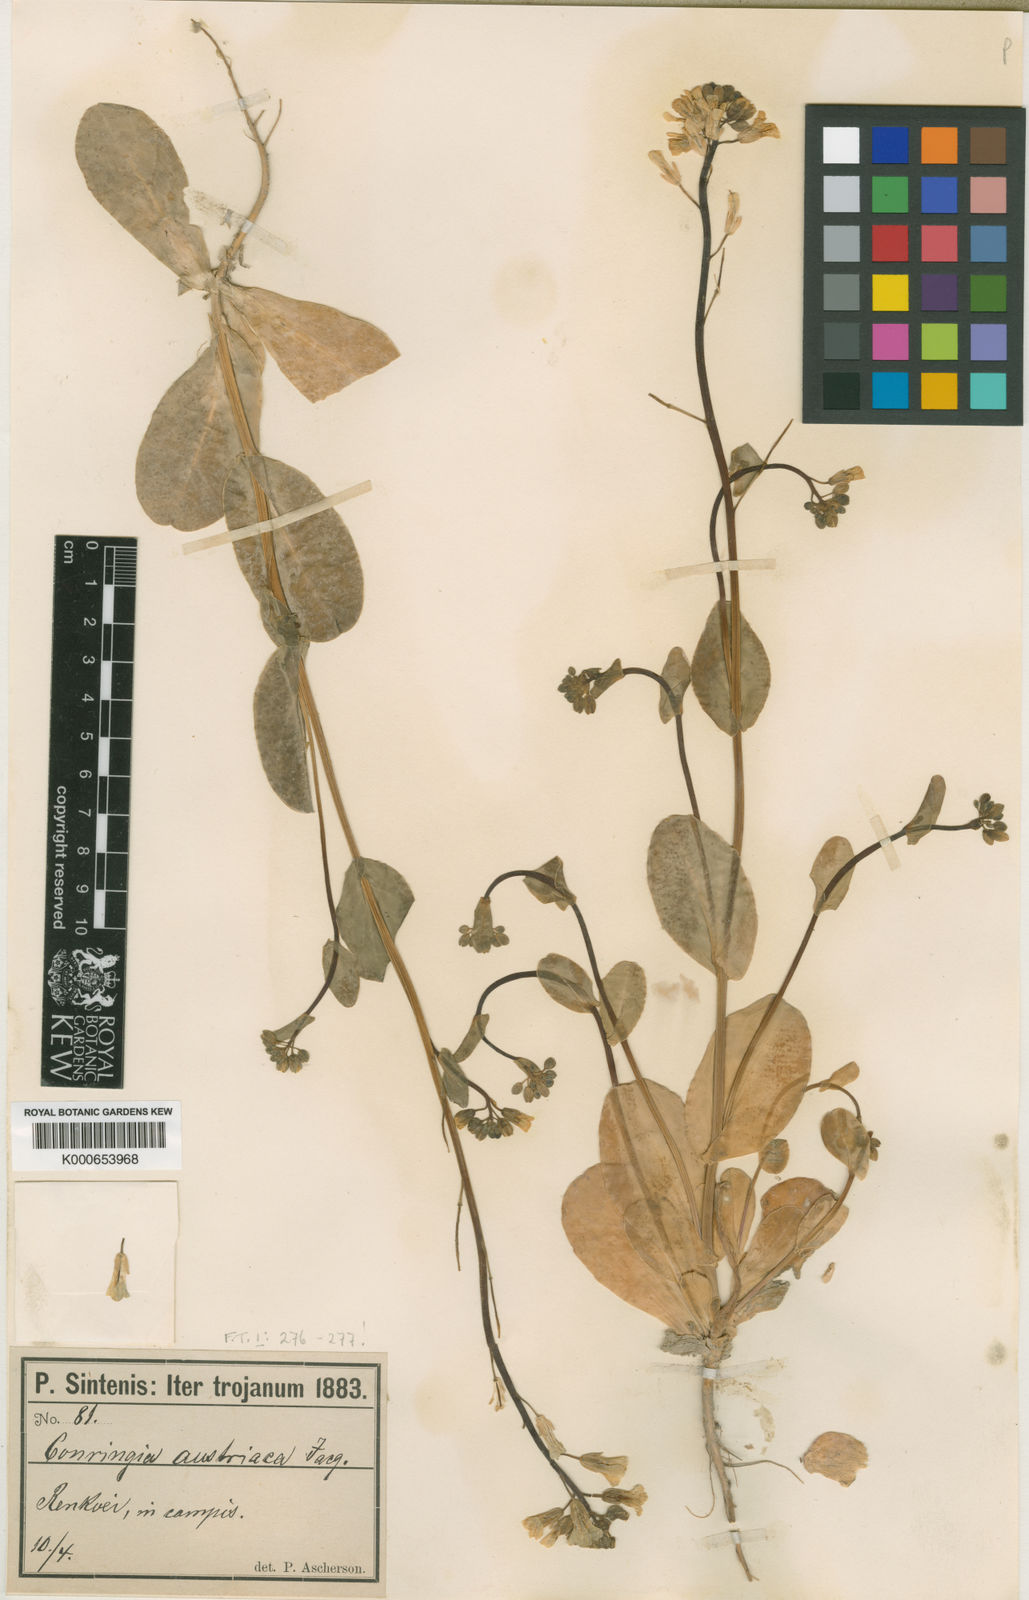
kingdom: Plantae
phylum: Tracheophyta
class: Magnoliopsida
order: Brassicales
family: Brassicaceae
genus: Conringia
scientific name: Conringia orientalis
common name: Hare's ear mustard
